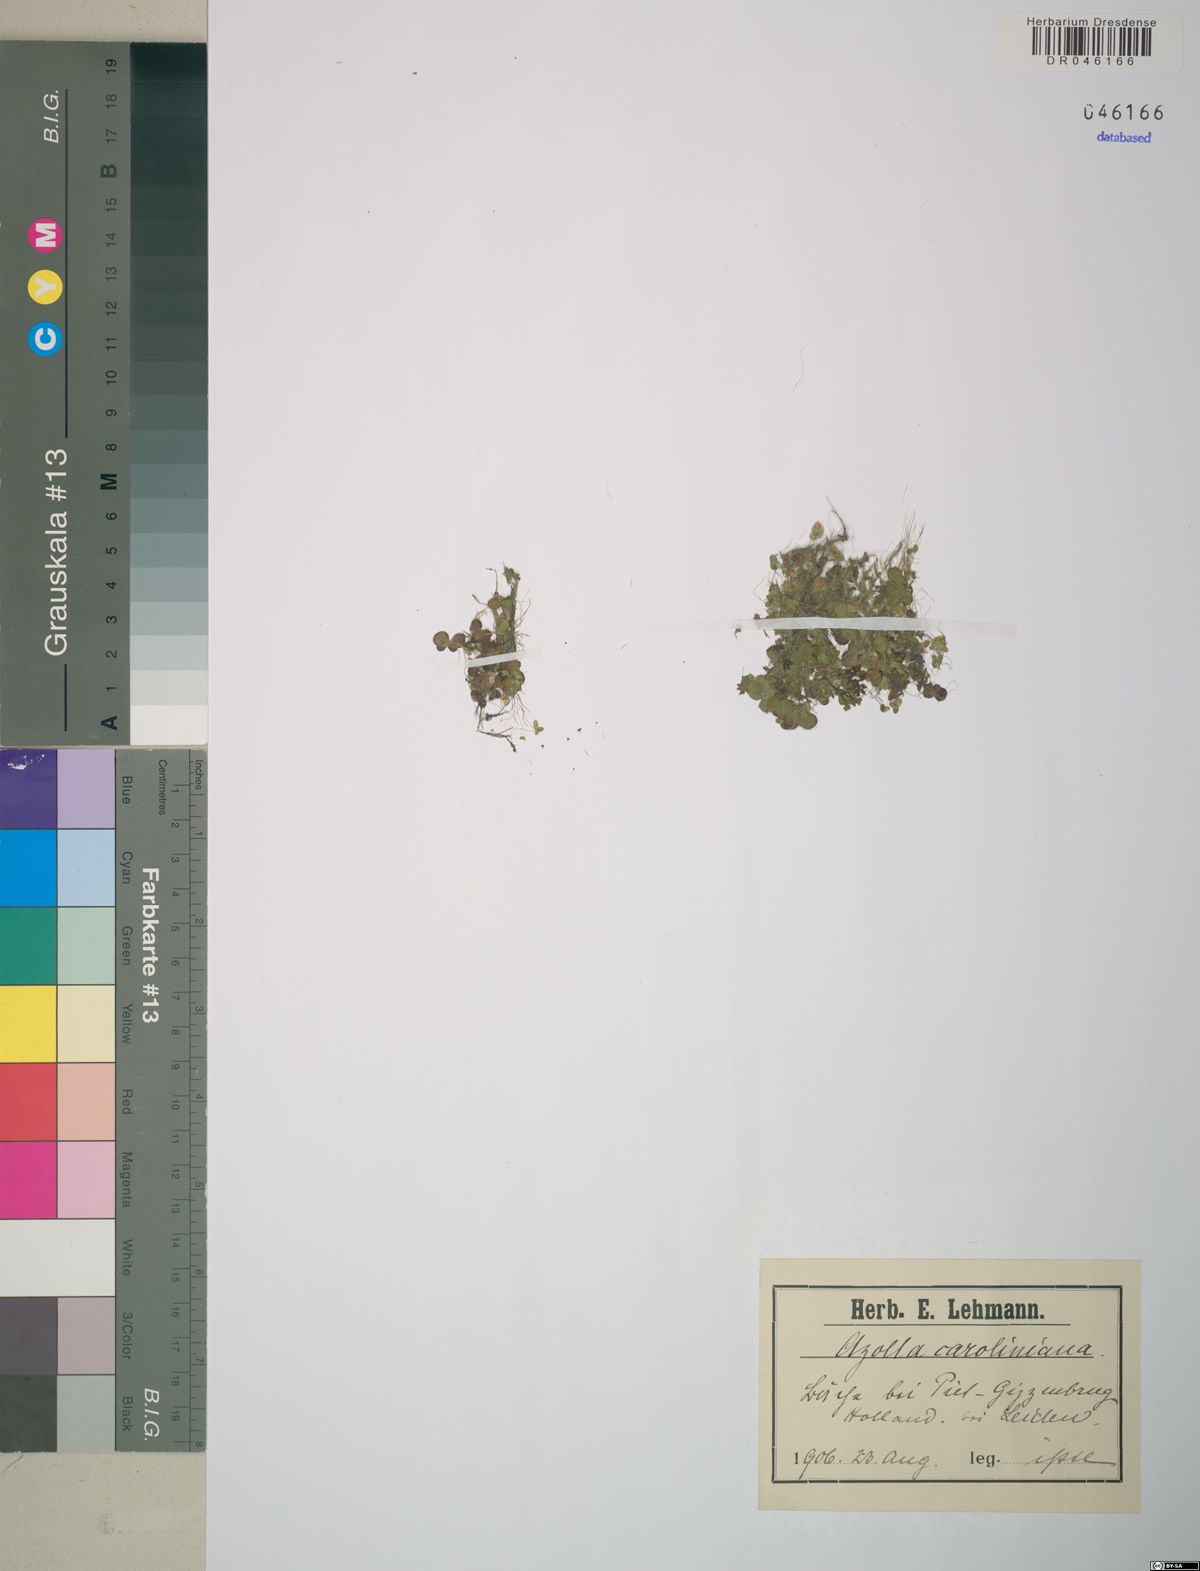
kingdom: Plantae
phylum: Tracheophyta
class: Polypodiopsida
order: Salviniales
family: Salviniaceae
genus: Azolla
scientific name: Azolla caroliniana
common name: Carolina mosquitofern
